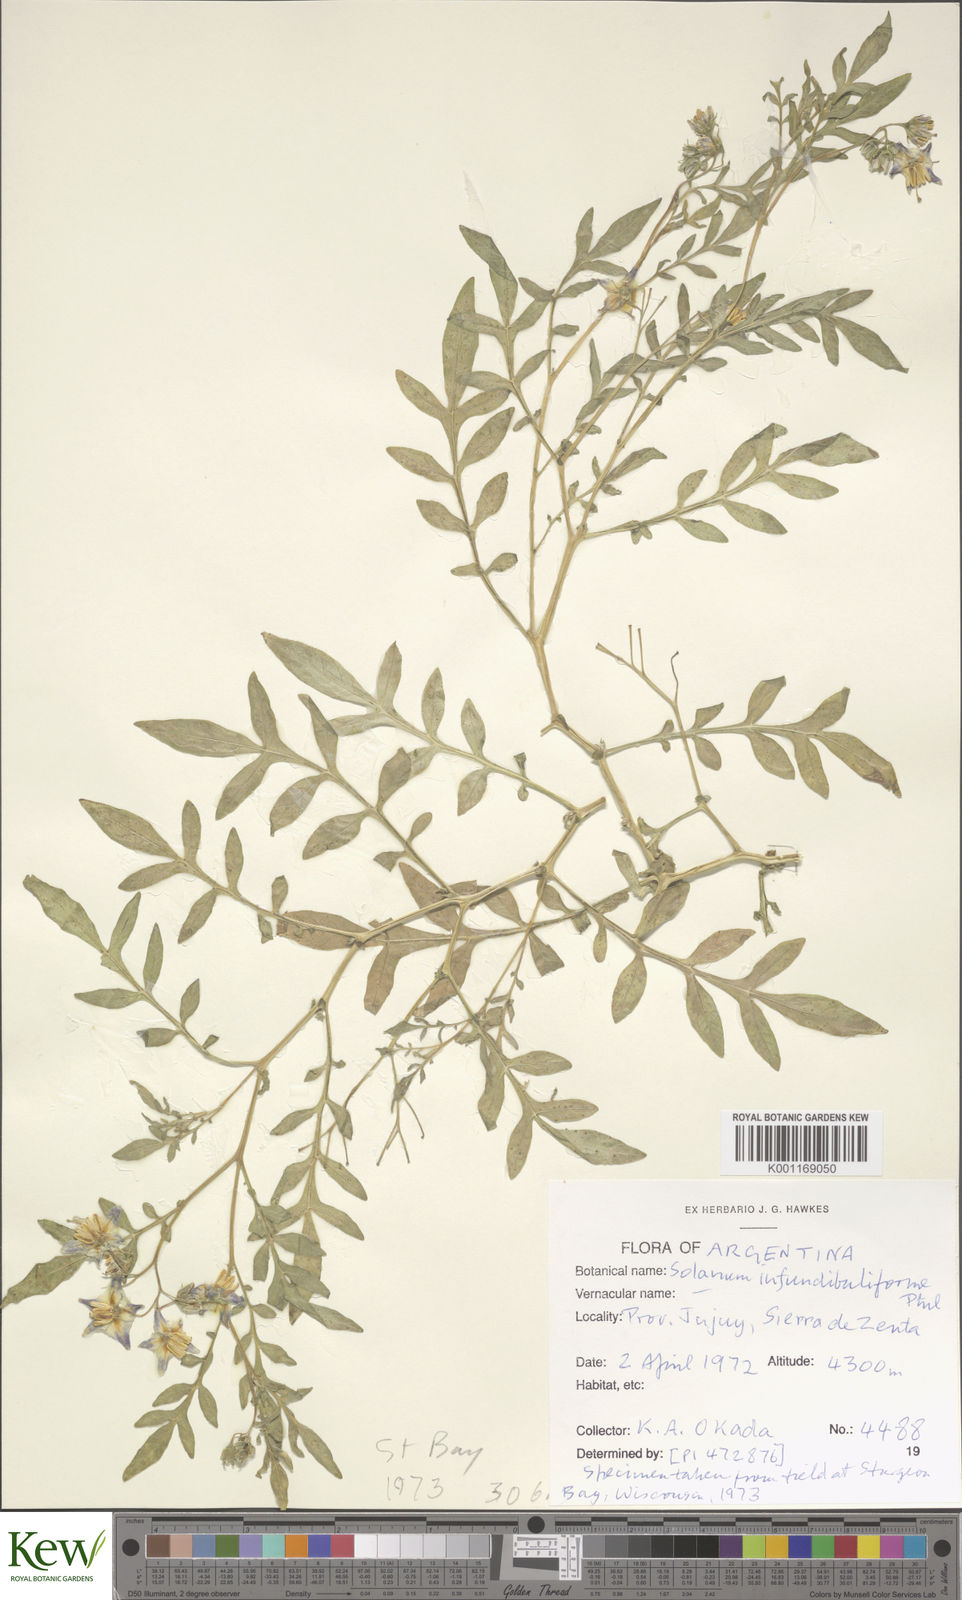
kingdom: Plantae
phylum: Tracheophyta
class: Magnoliopsida
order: Solanales
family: Solanaceae
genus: Solanum
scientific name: Solanum infundibuliforme
